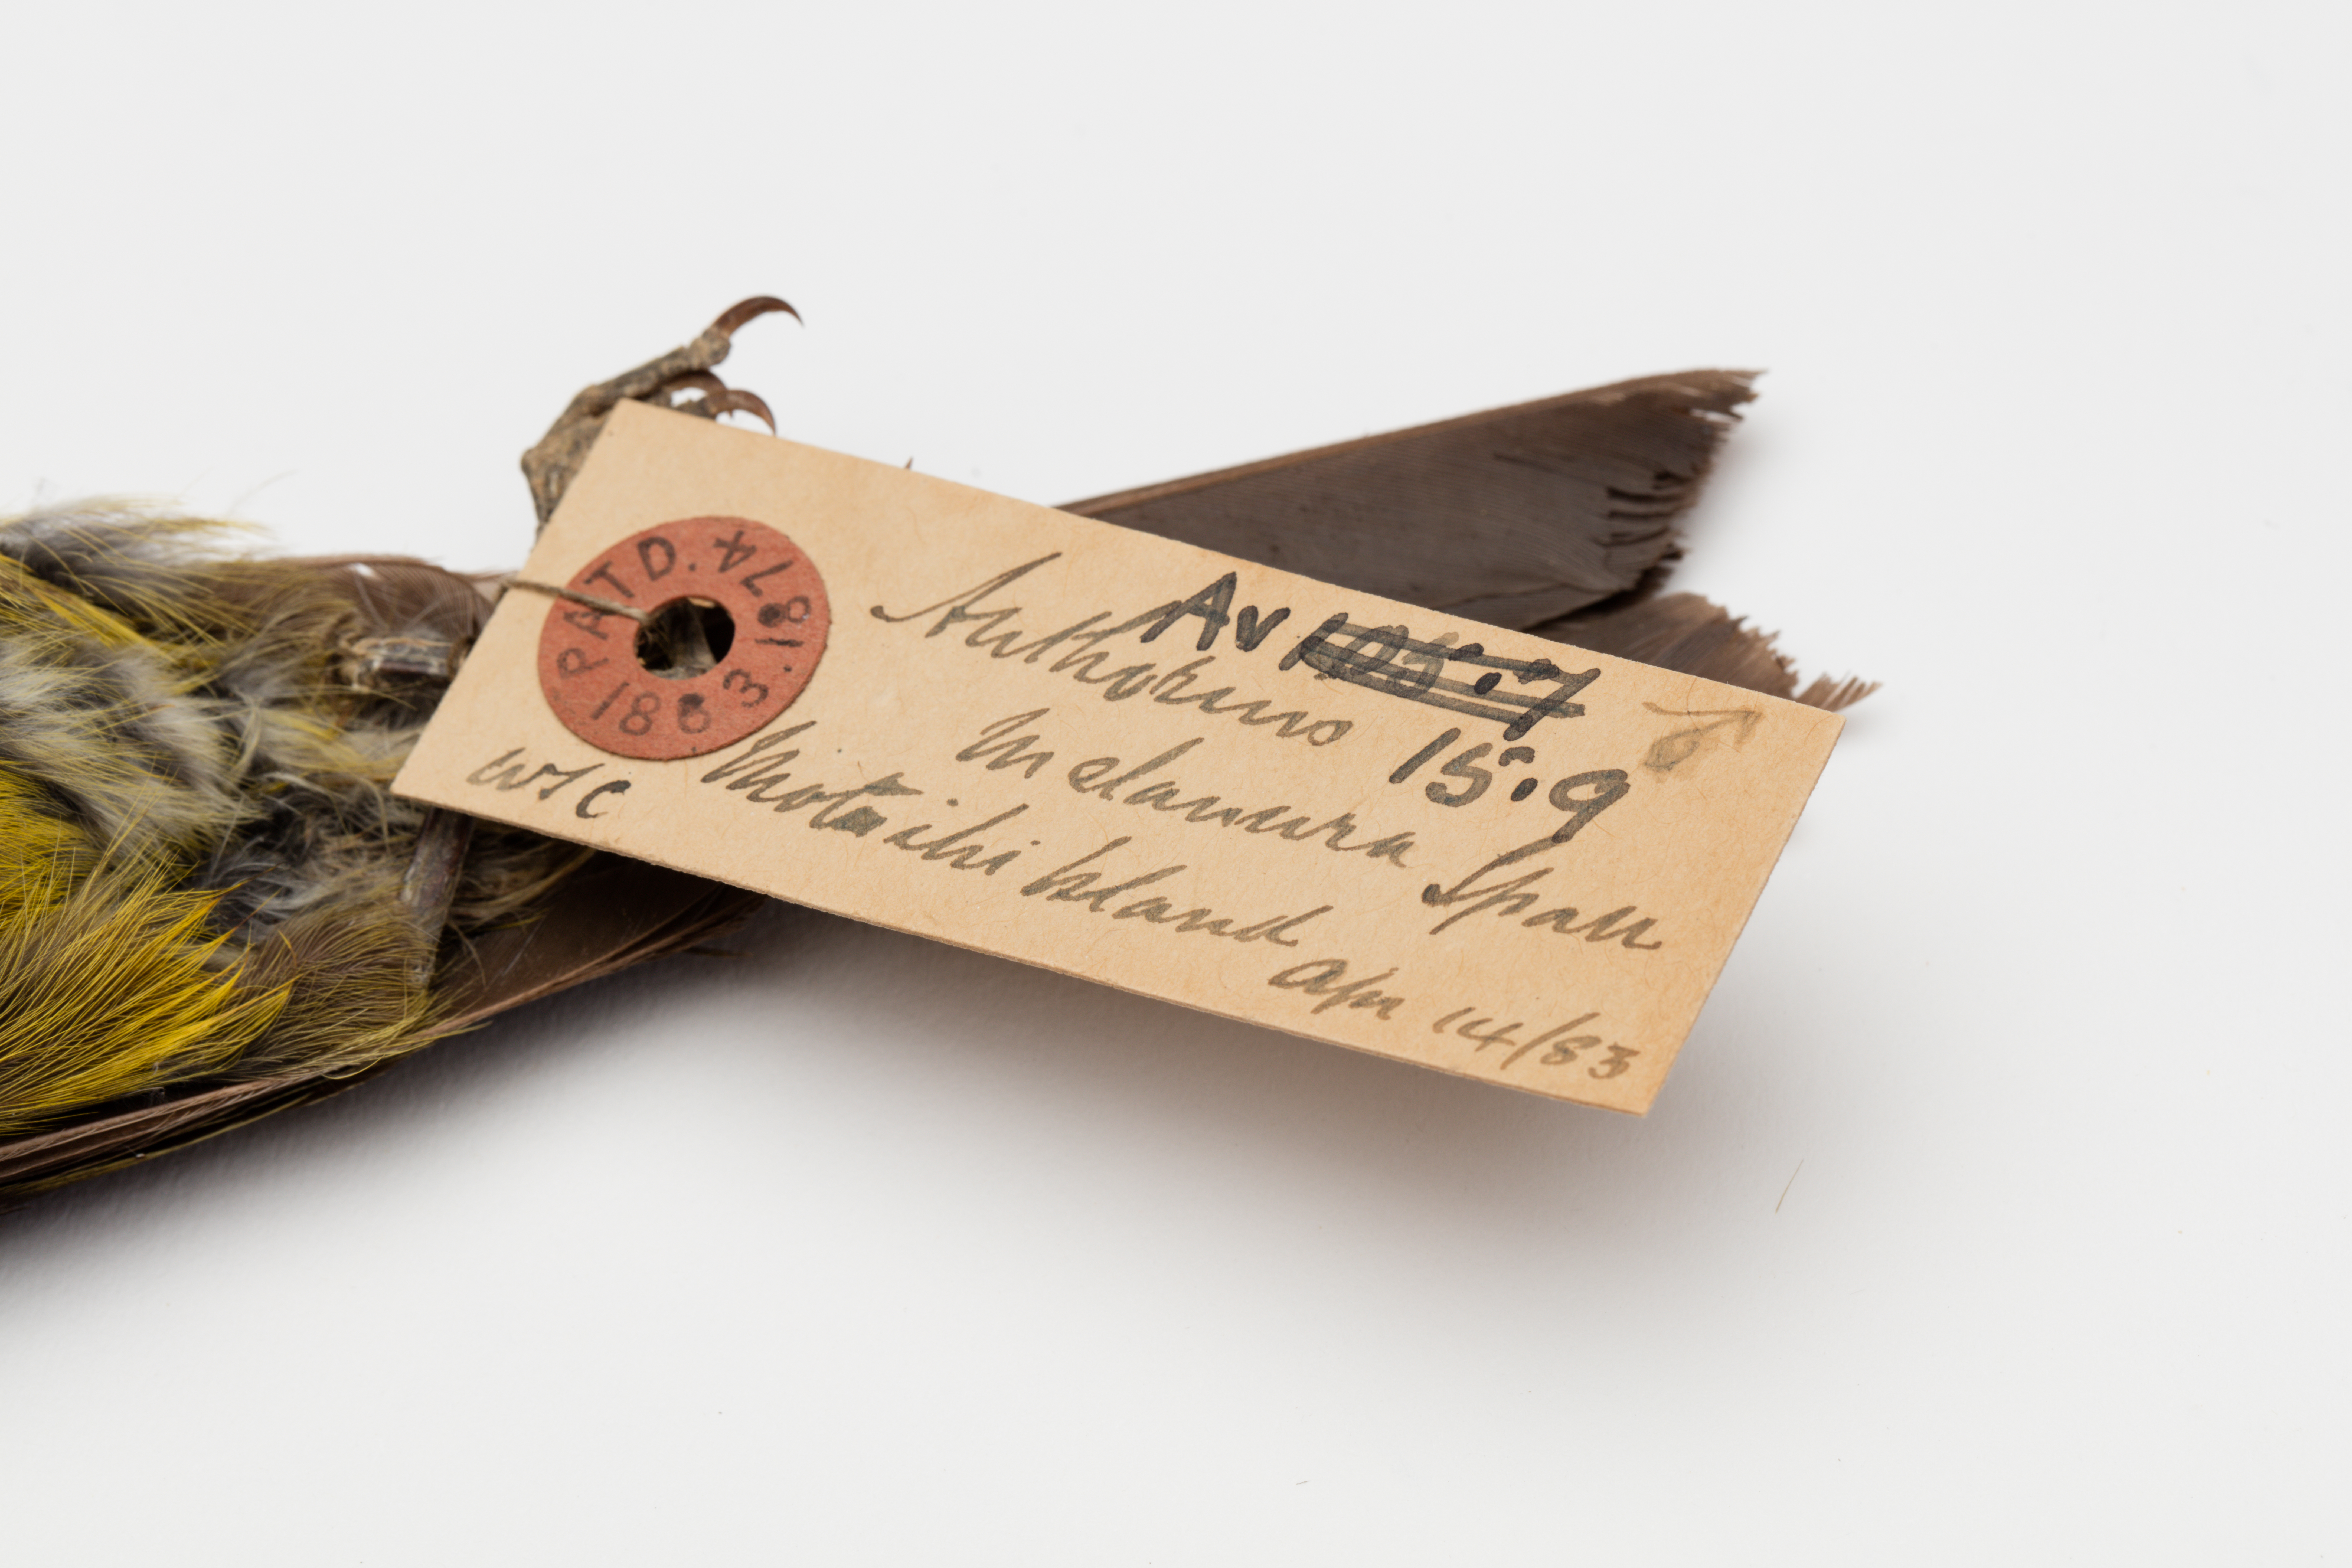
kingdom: Animalia
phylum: Chordata
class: Aves
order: Passeriformes
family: Meliphagidae
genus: Anthornis
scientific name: Anthornis melanura
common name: New zealand bellbird
